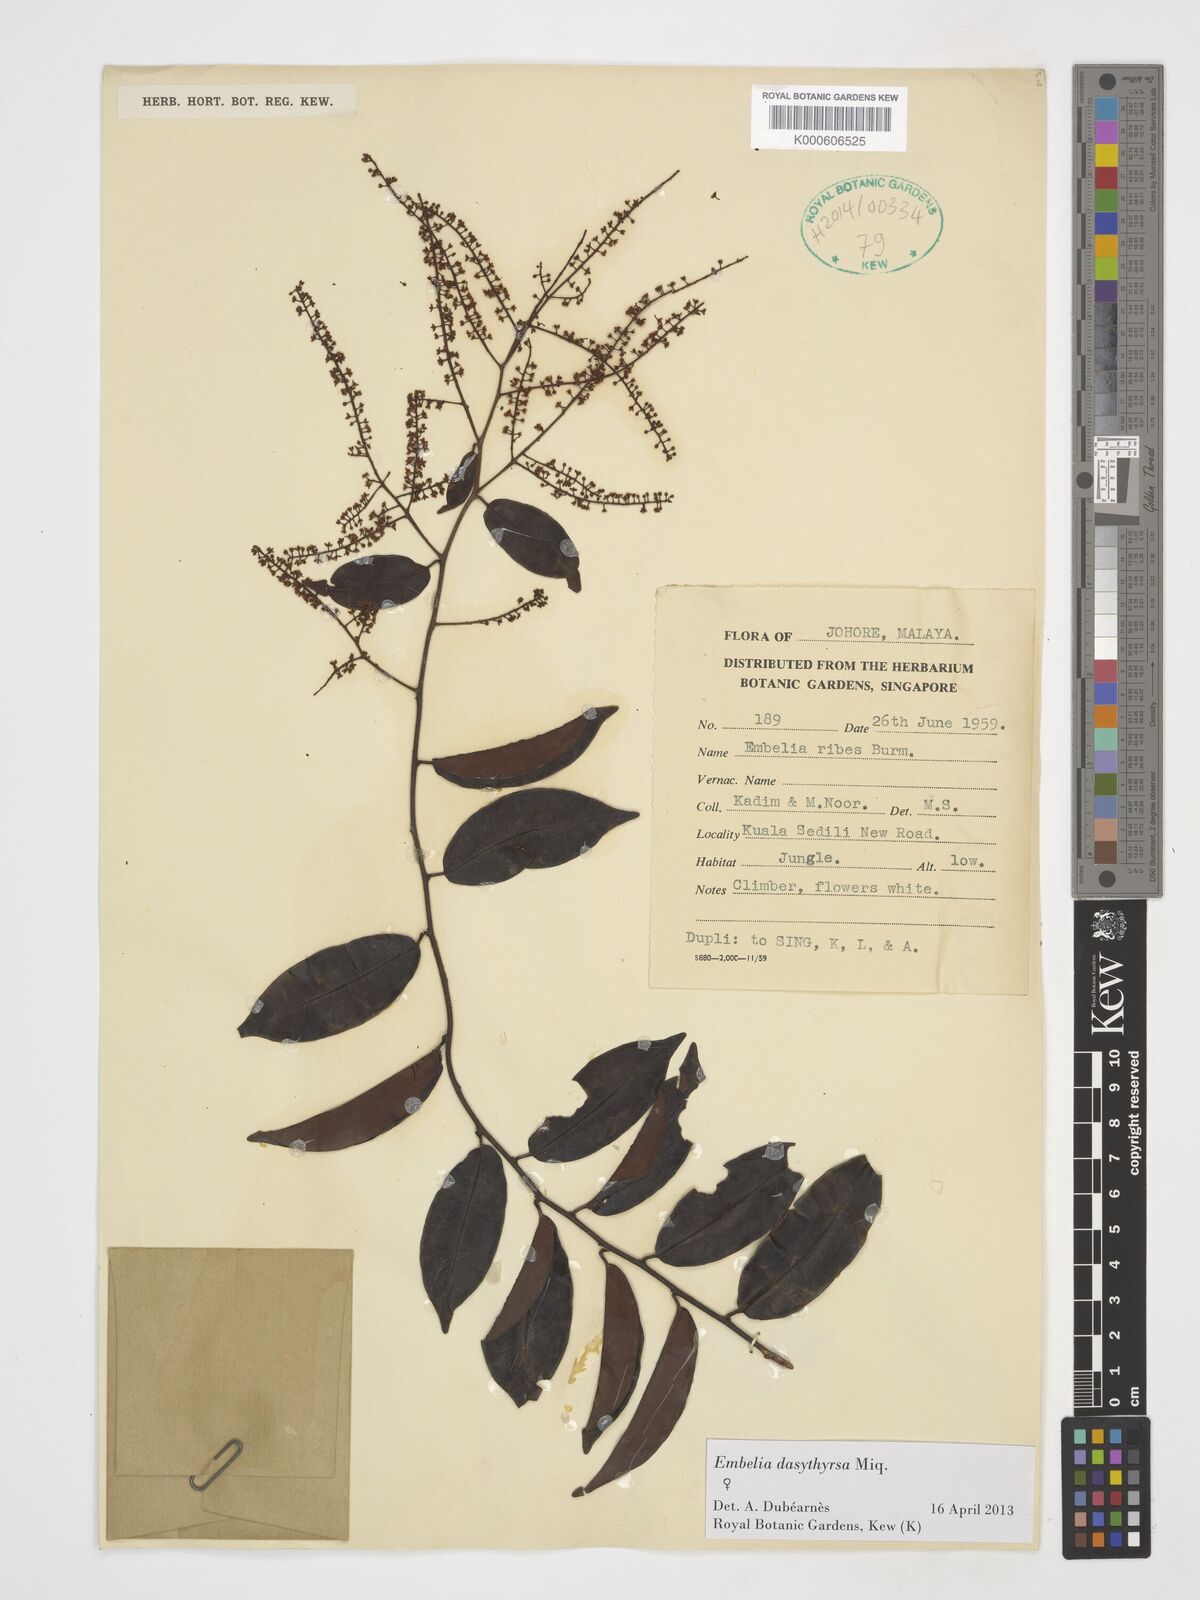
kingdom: Plantae
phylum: Tracheophyta
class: Magnoliopsida
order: Ericales
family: Primulaceae
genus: Embelia
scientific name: Embelia dasythyrsa
